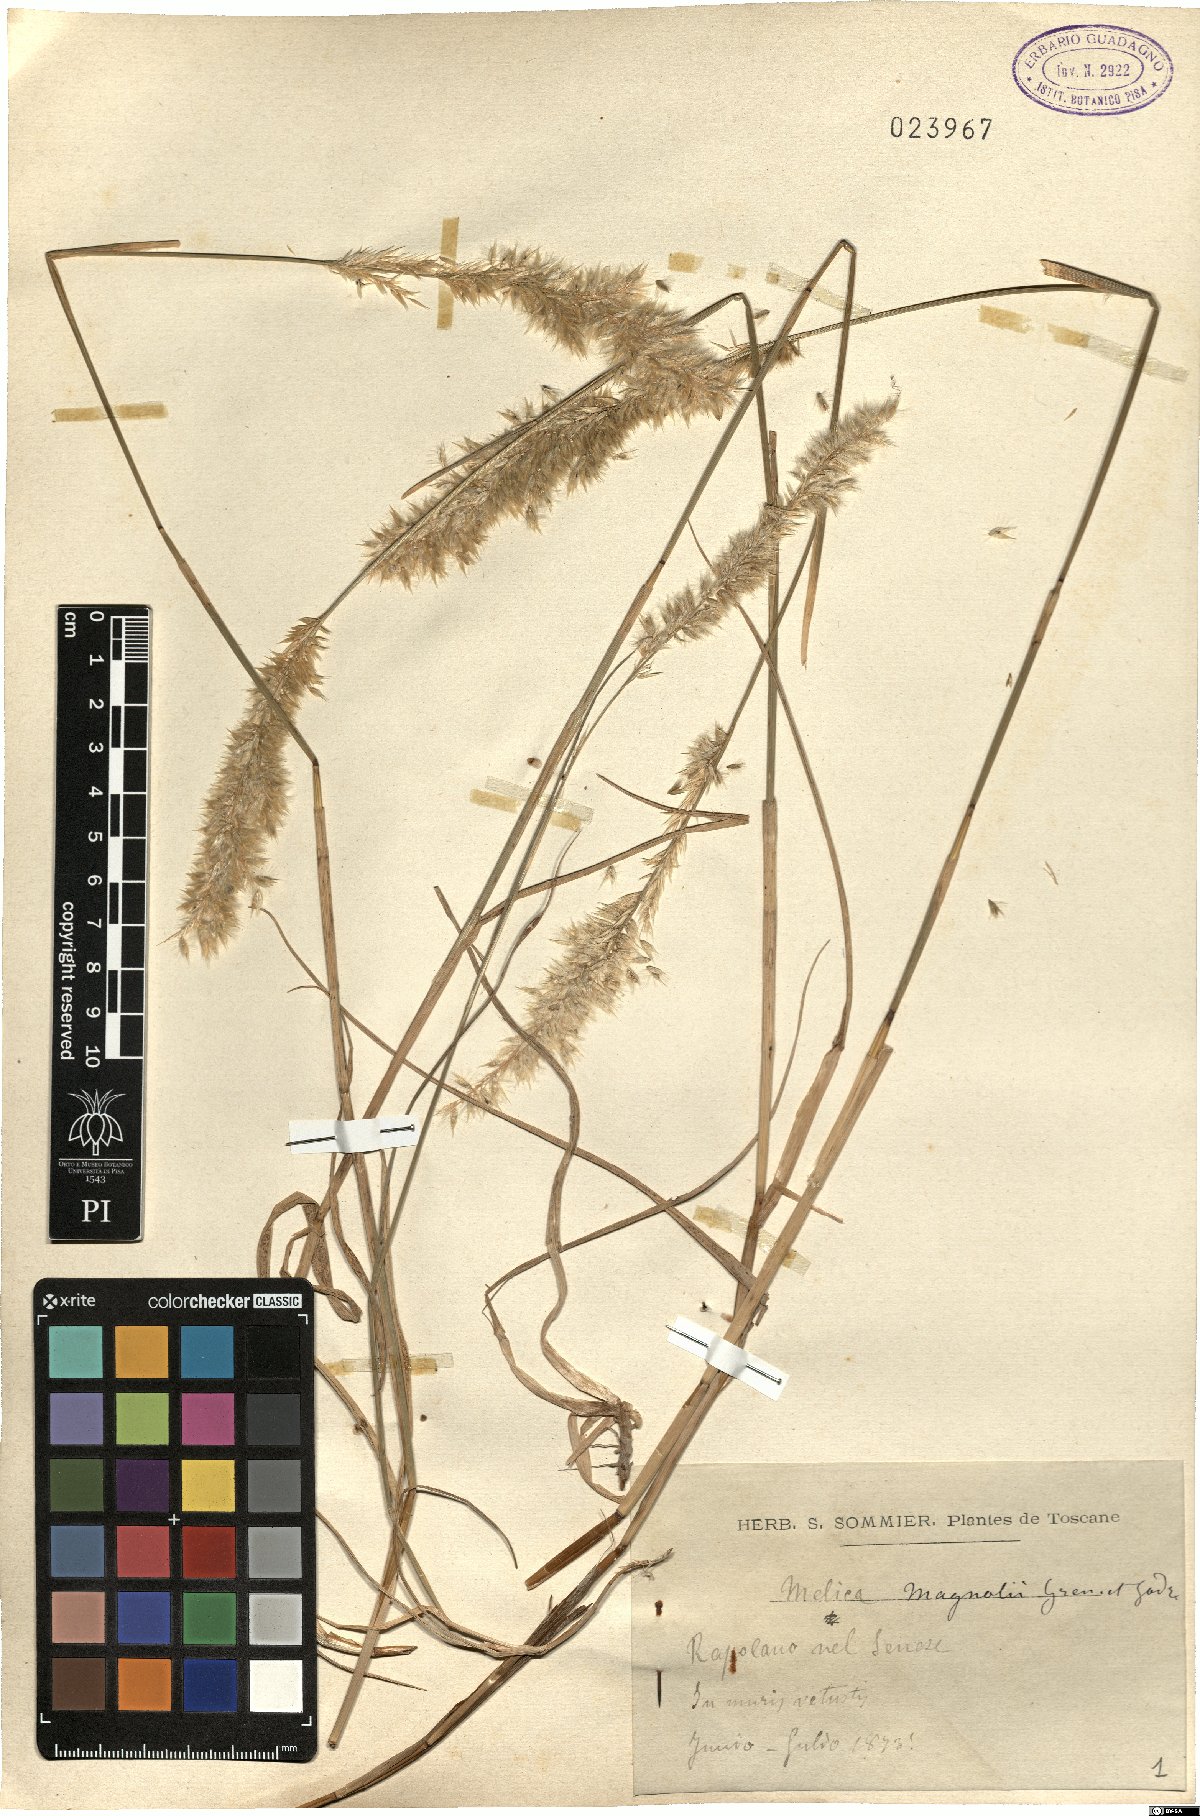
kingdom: Plantae
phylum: Tracheophyta
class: Liliopsida
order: Poales
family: Poaceae
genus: Melica
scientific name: Melica ciliata
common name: Hairy melicgrass
